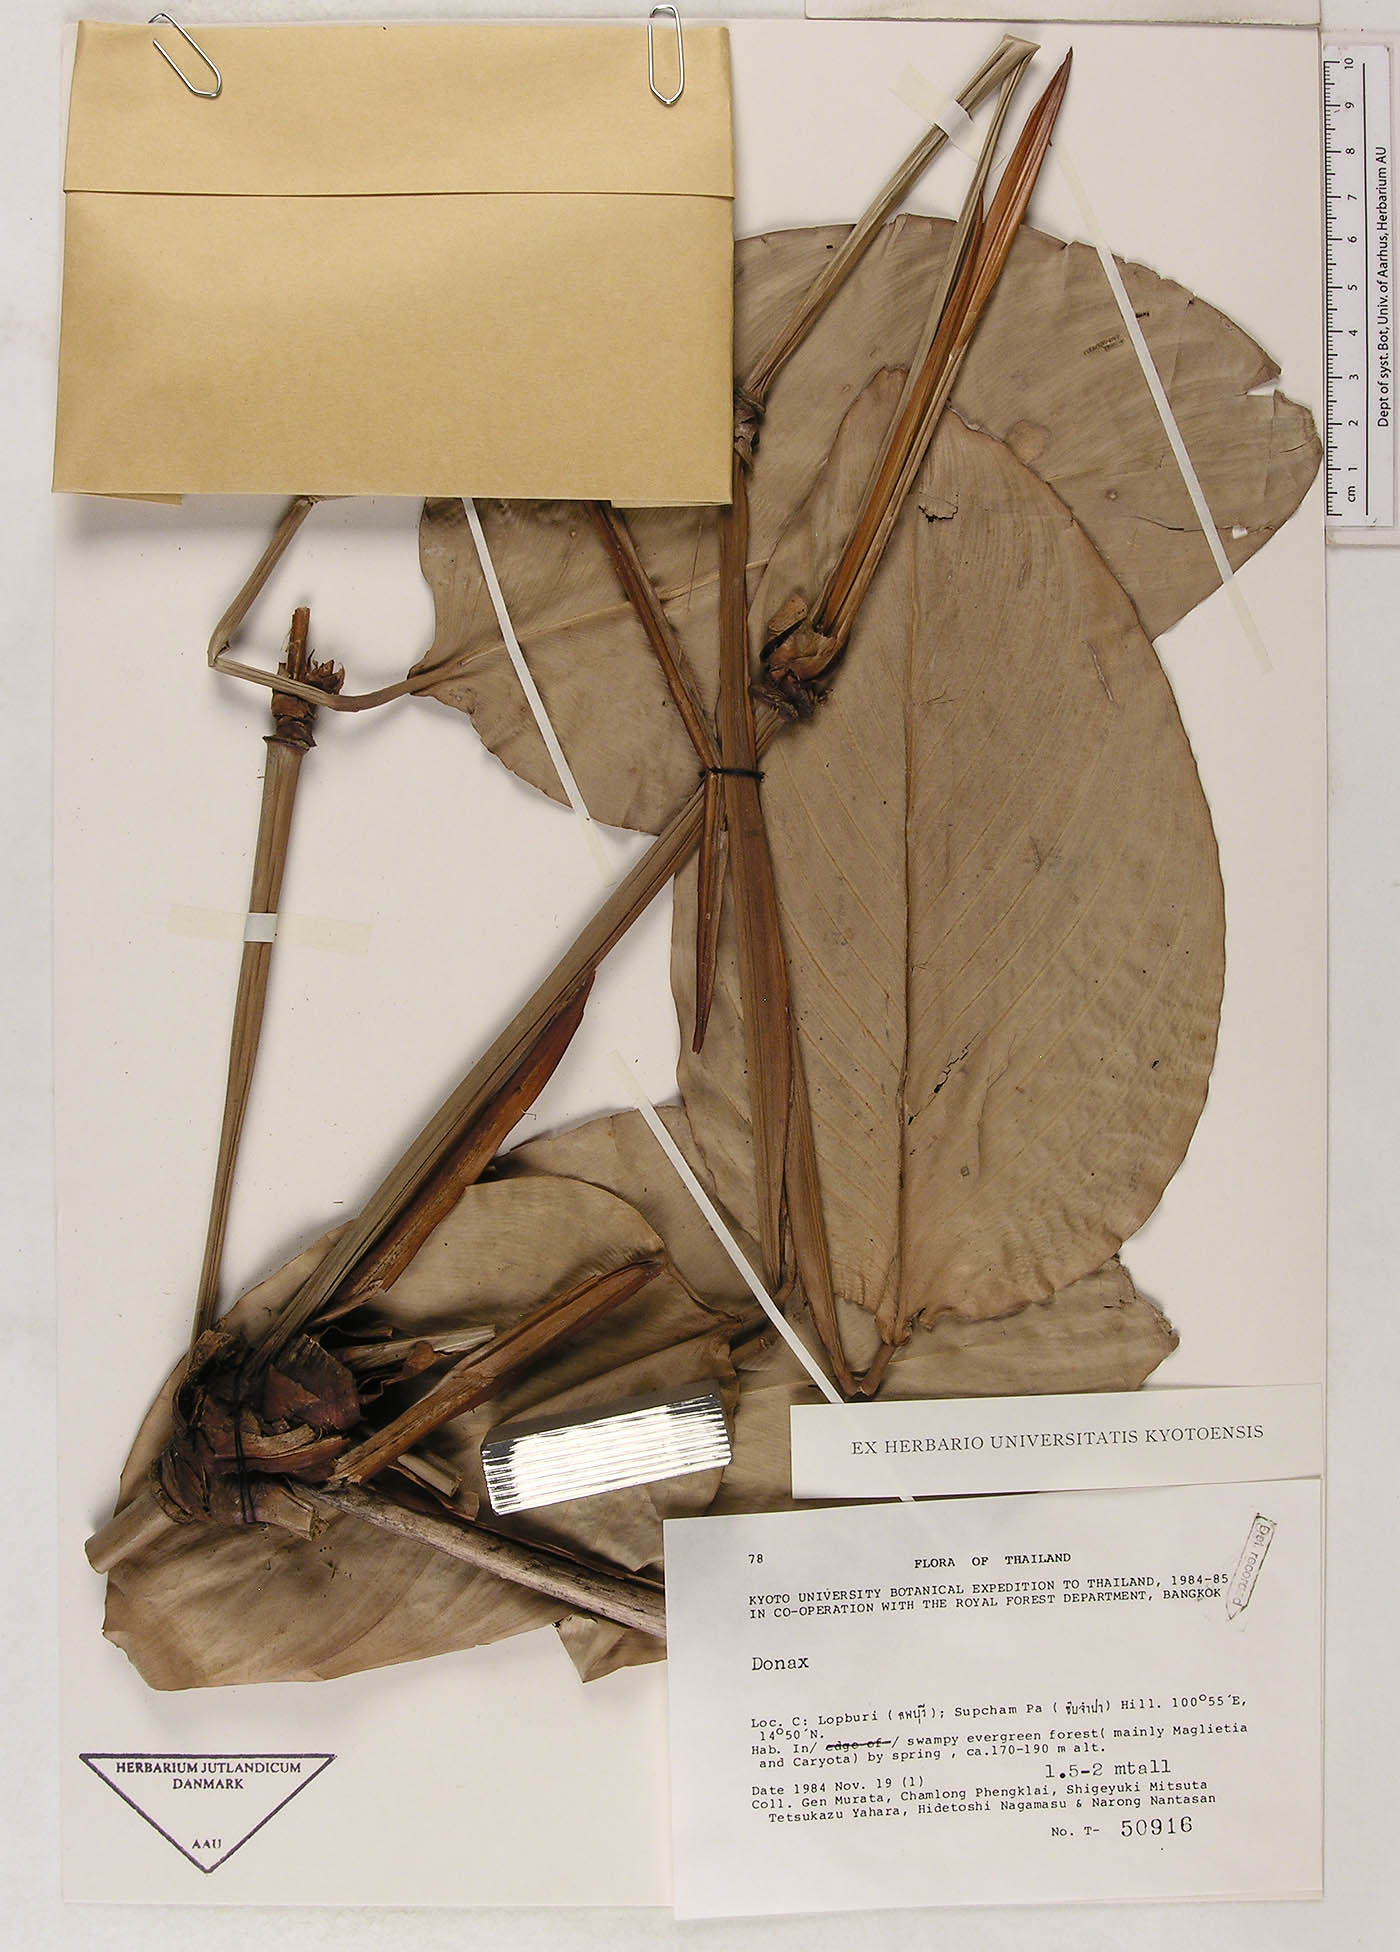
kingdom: Plantae
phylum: Tracheophyta
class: Liliopsida
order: Zingiberales
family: Marantaceae
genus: Donax
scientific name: Donax canniformis
